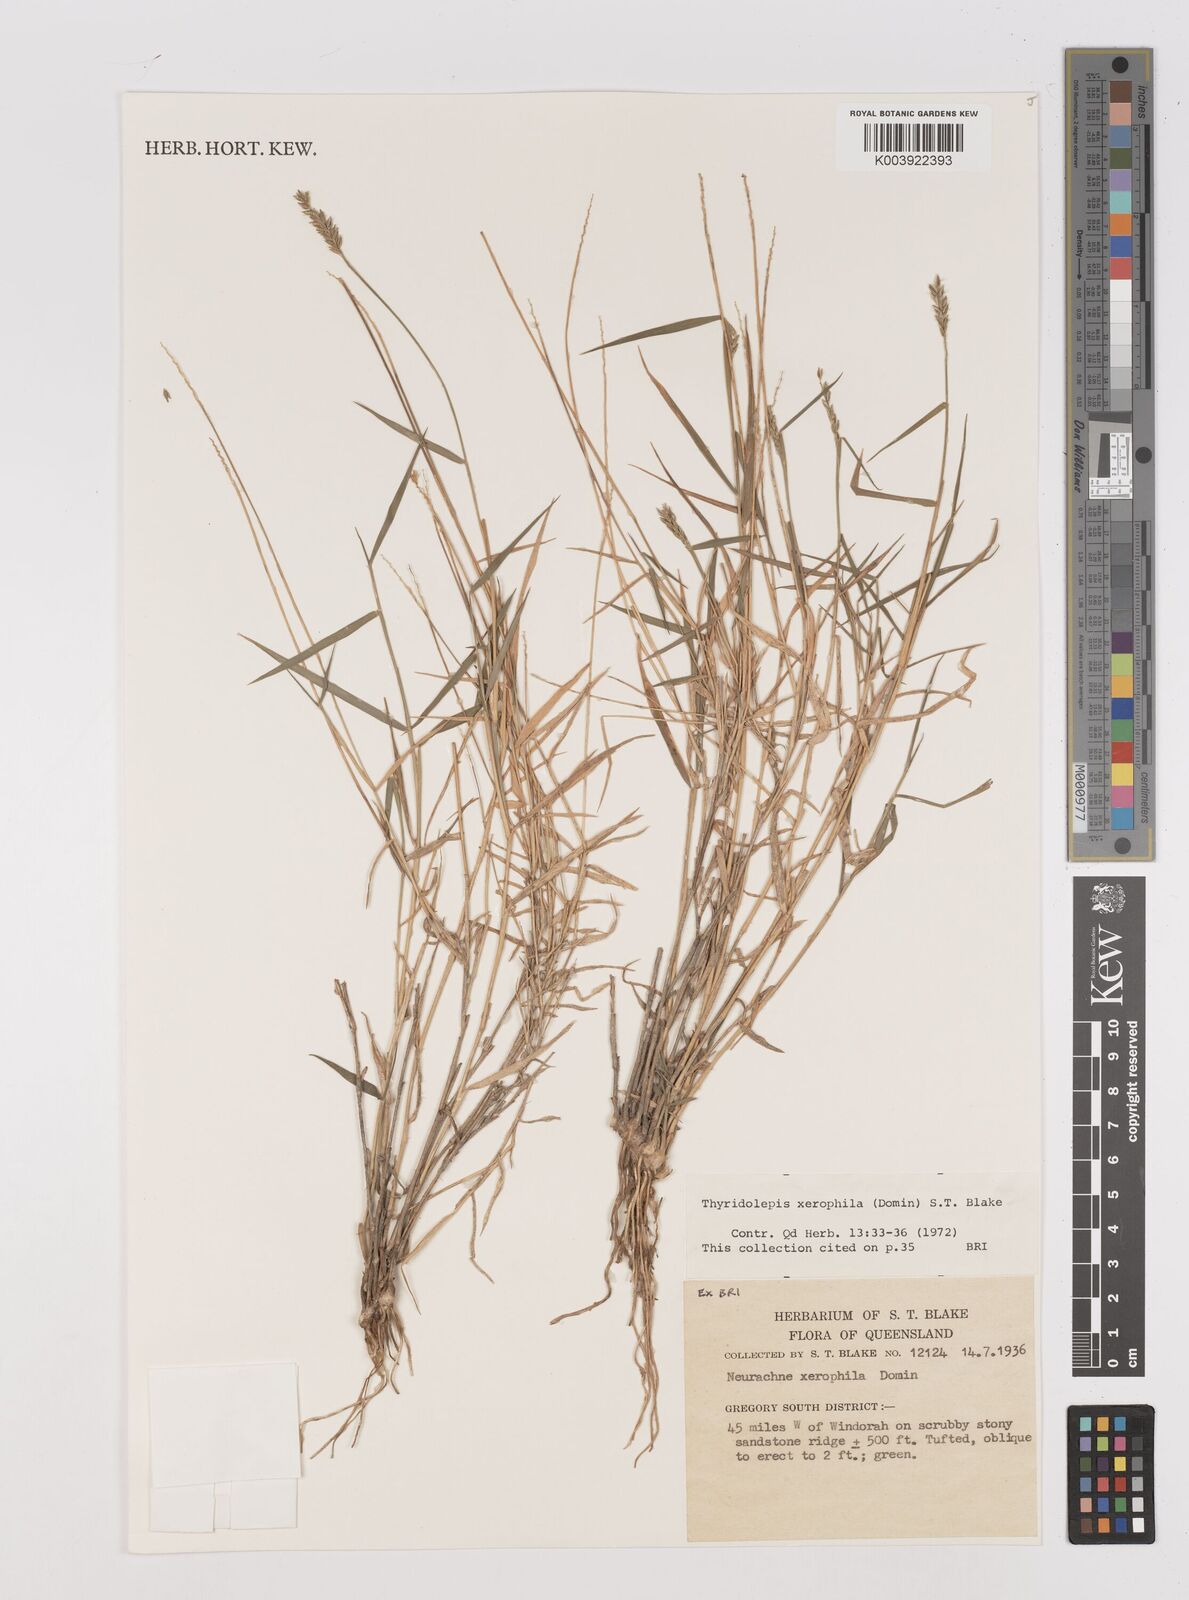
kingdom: Plantae
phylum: Tracheophyta
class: Liliopsida
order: Poales
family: Poaceae
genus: Thyridolepis
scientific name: Thyridolepis xerophila
